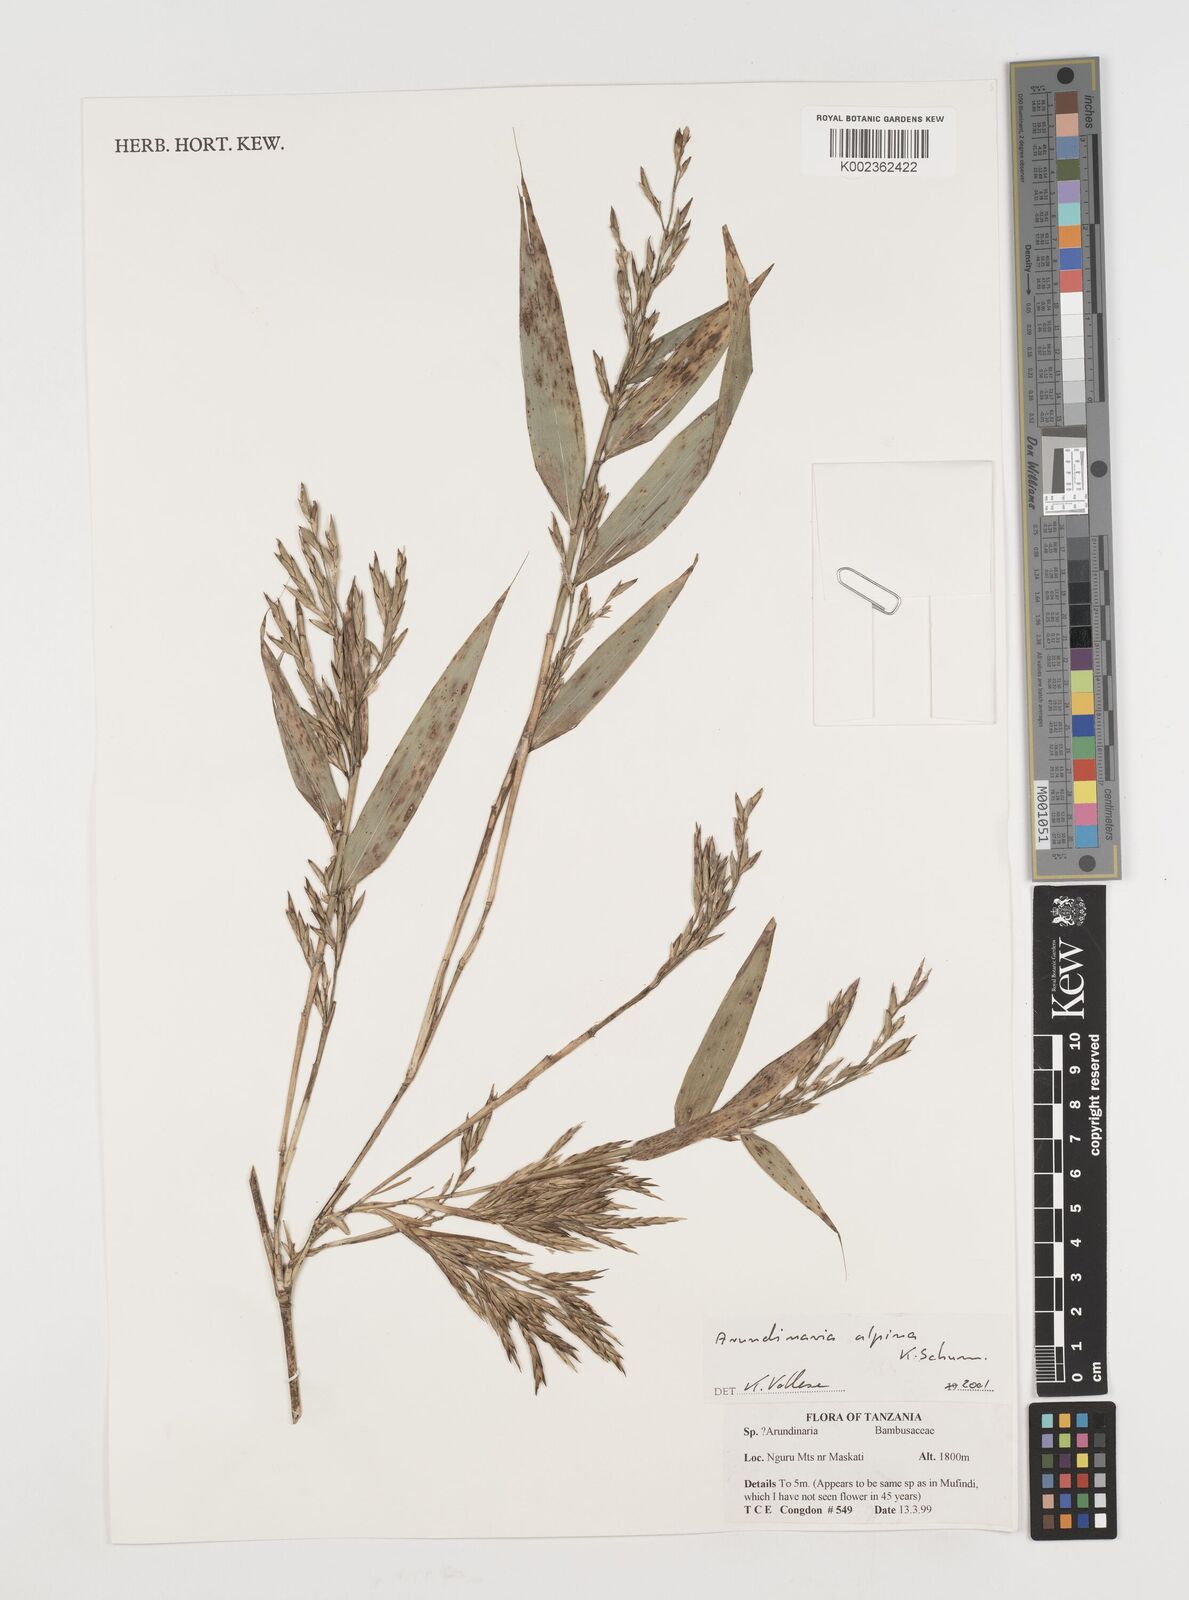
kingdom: Plantae
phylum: Tracheophyta
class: Liliopsida
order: Poales
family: Poaceae
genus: Oldeania
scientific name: Oldeania alpina
